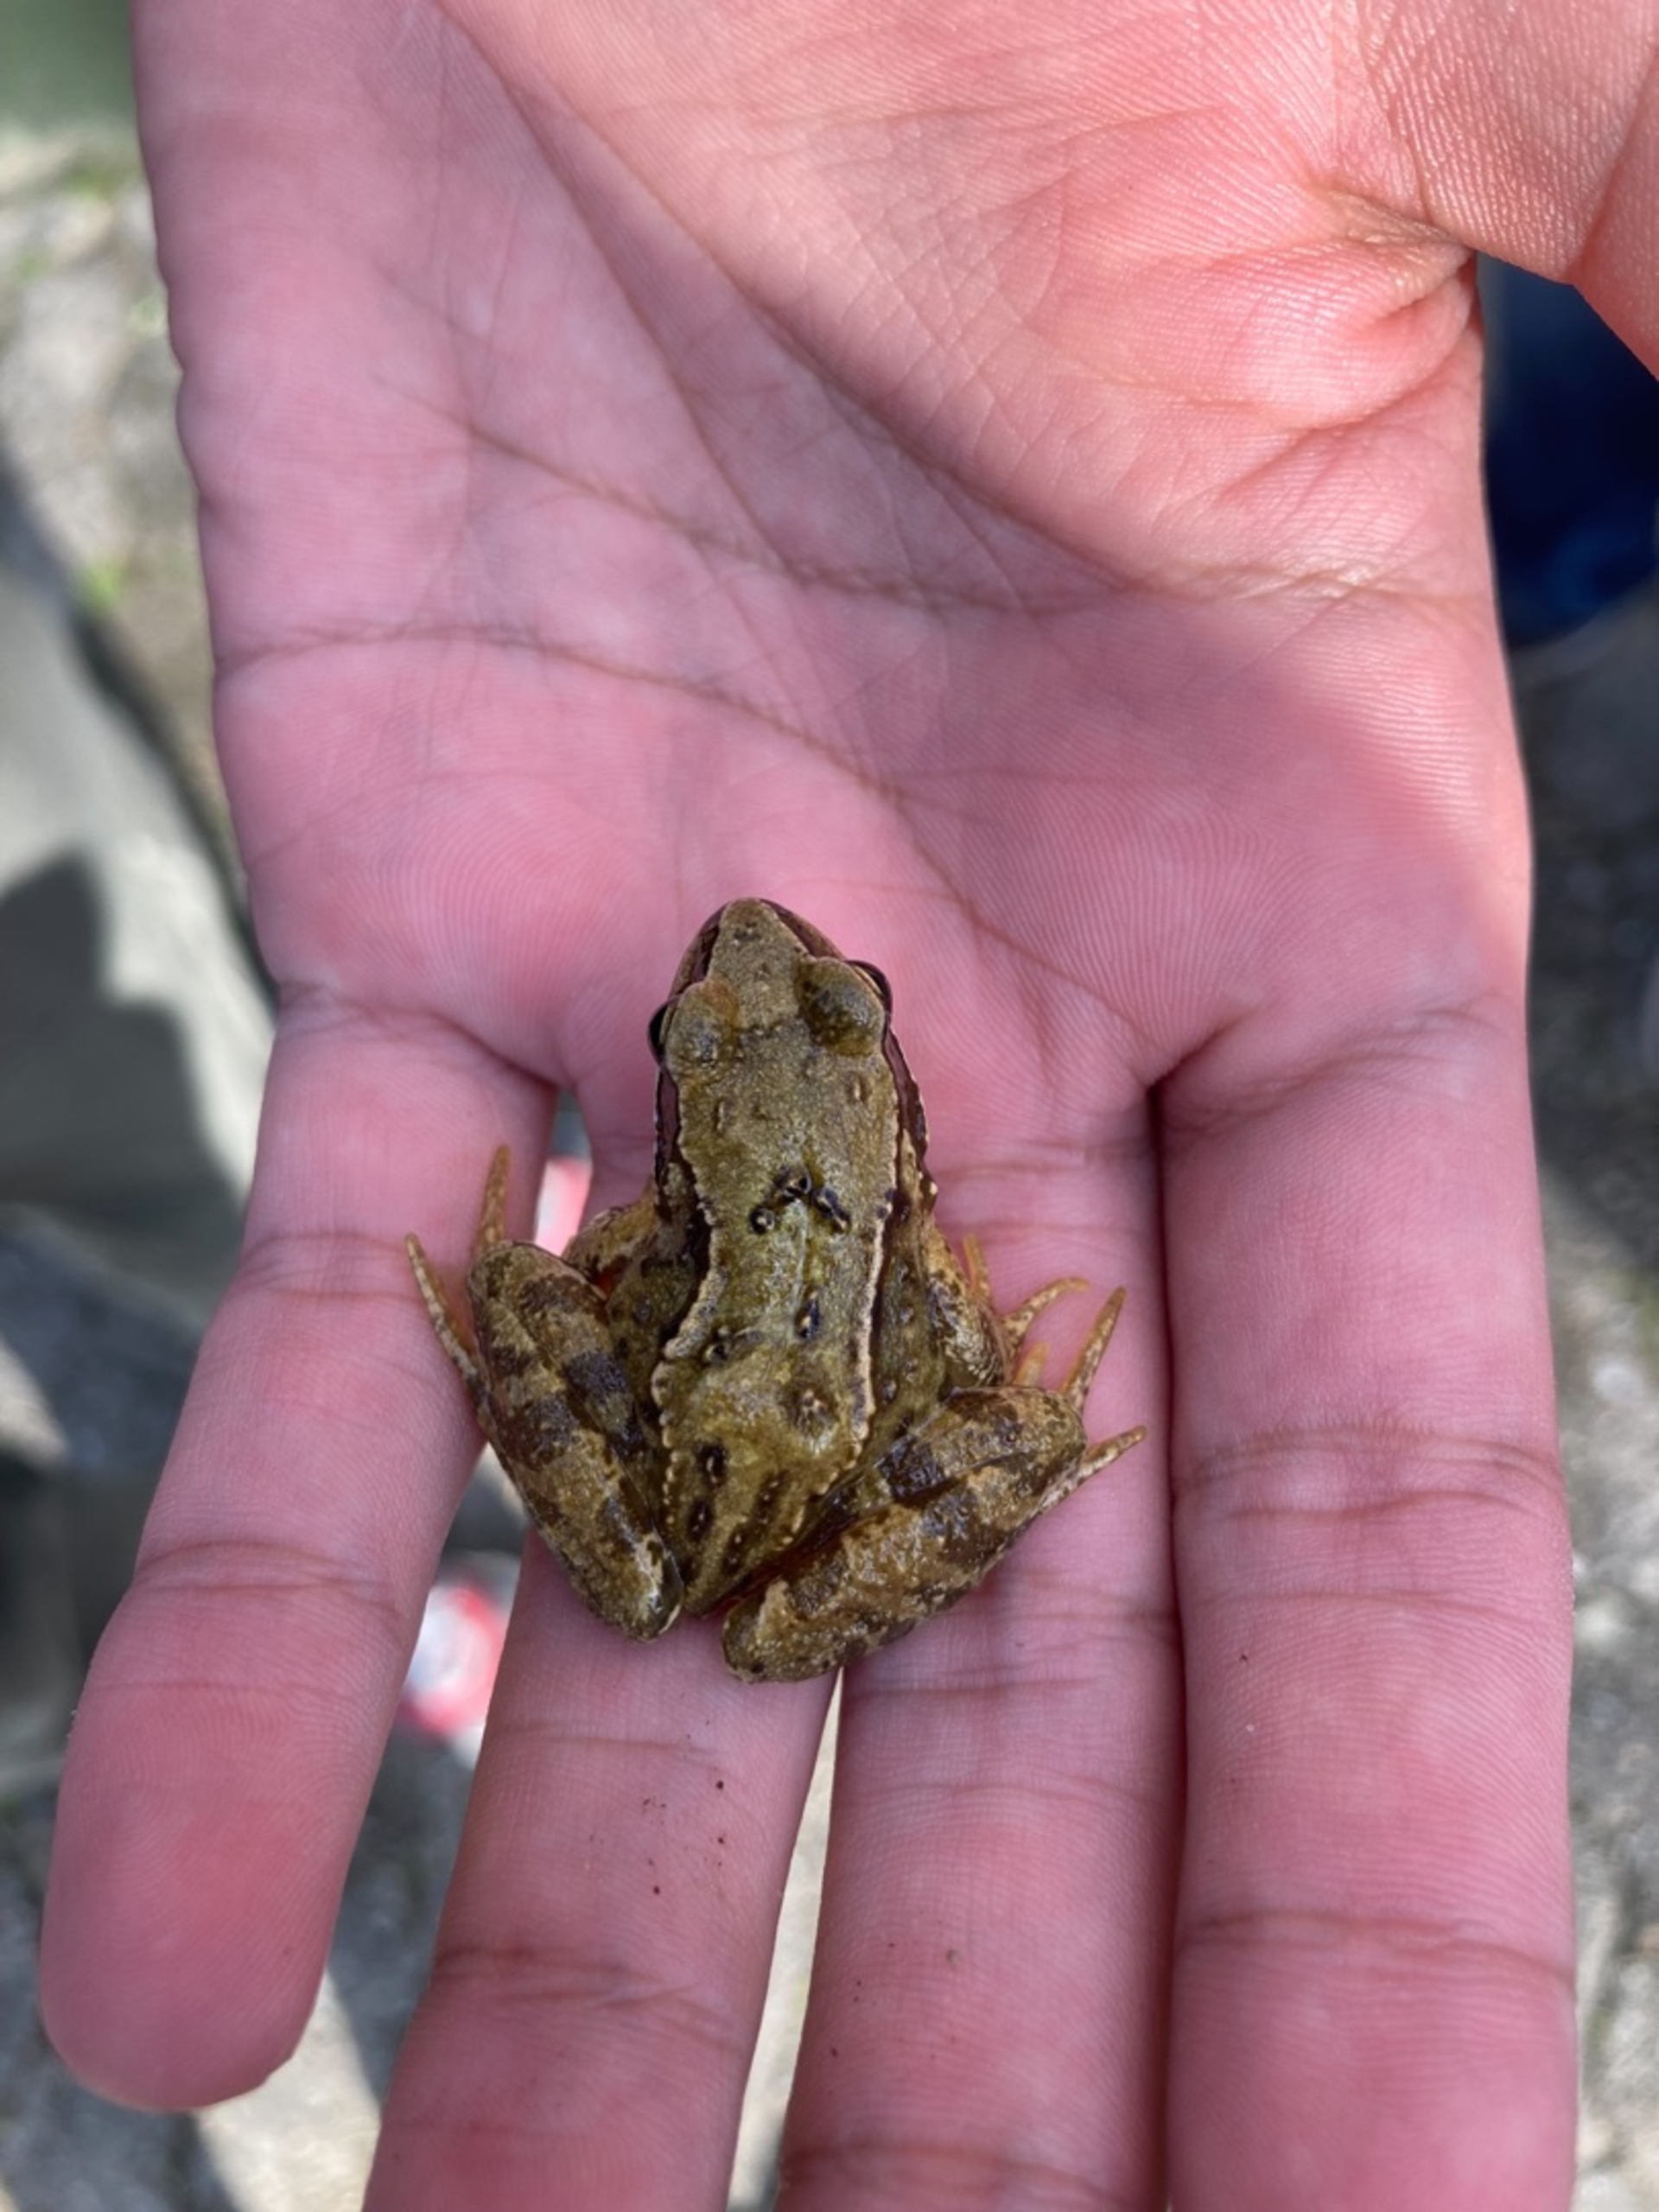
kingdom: Animalia
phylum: Chordata
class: Amphibia
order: Anura
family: Ranidae
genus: Rana
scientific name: Rana temporaria
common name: Butsnudet frø
